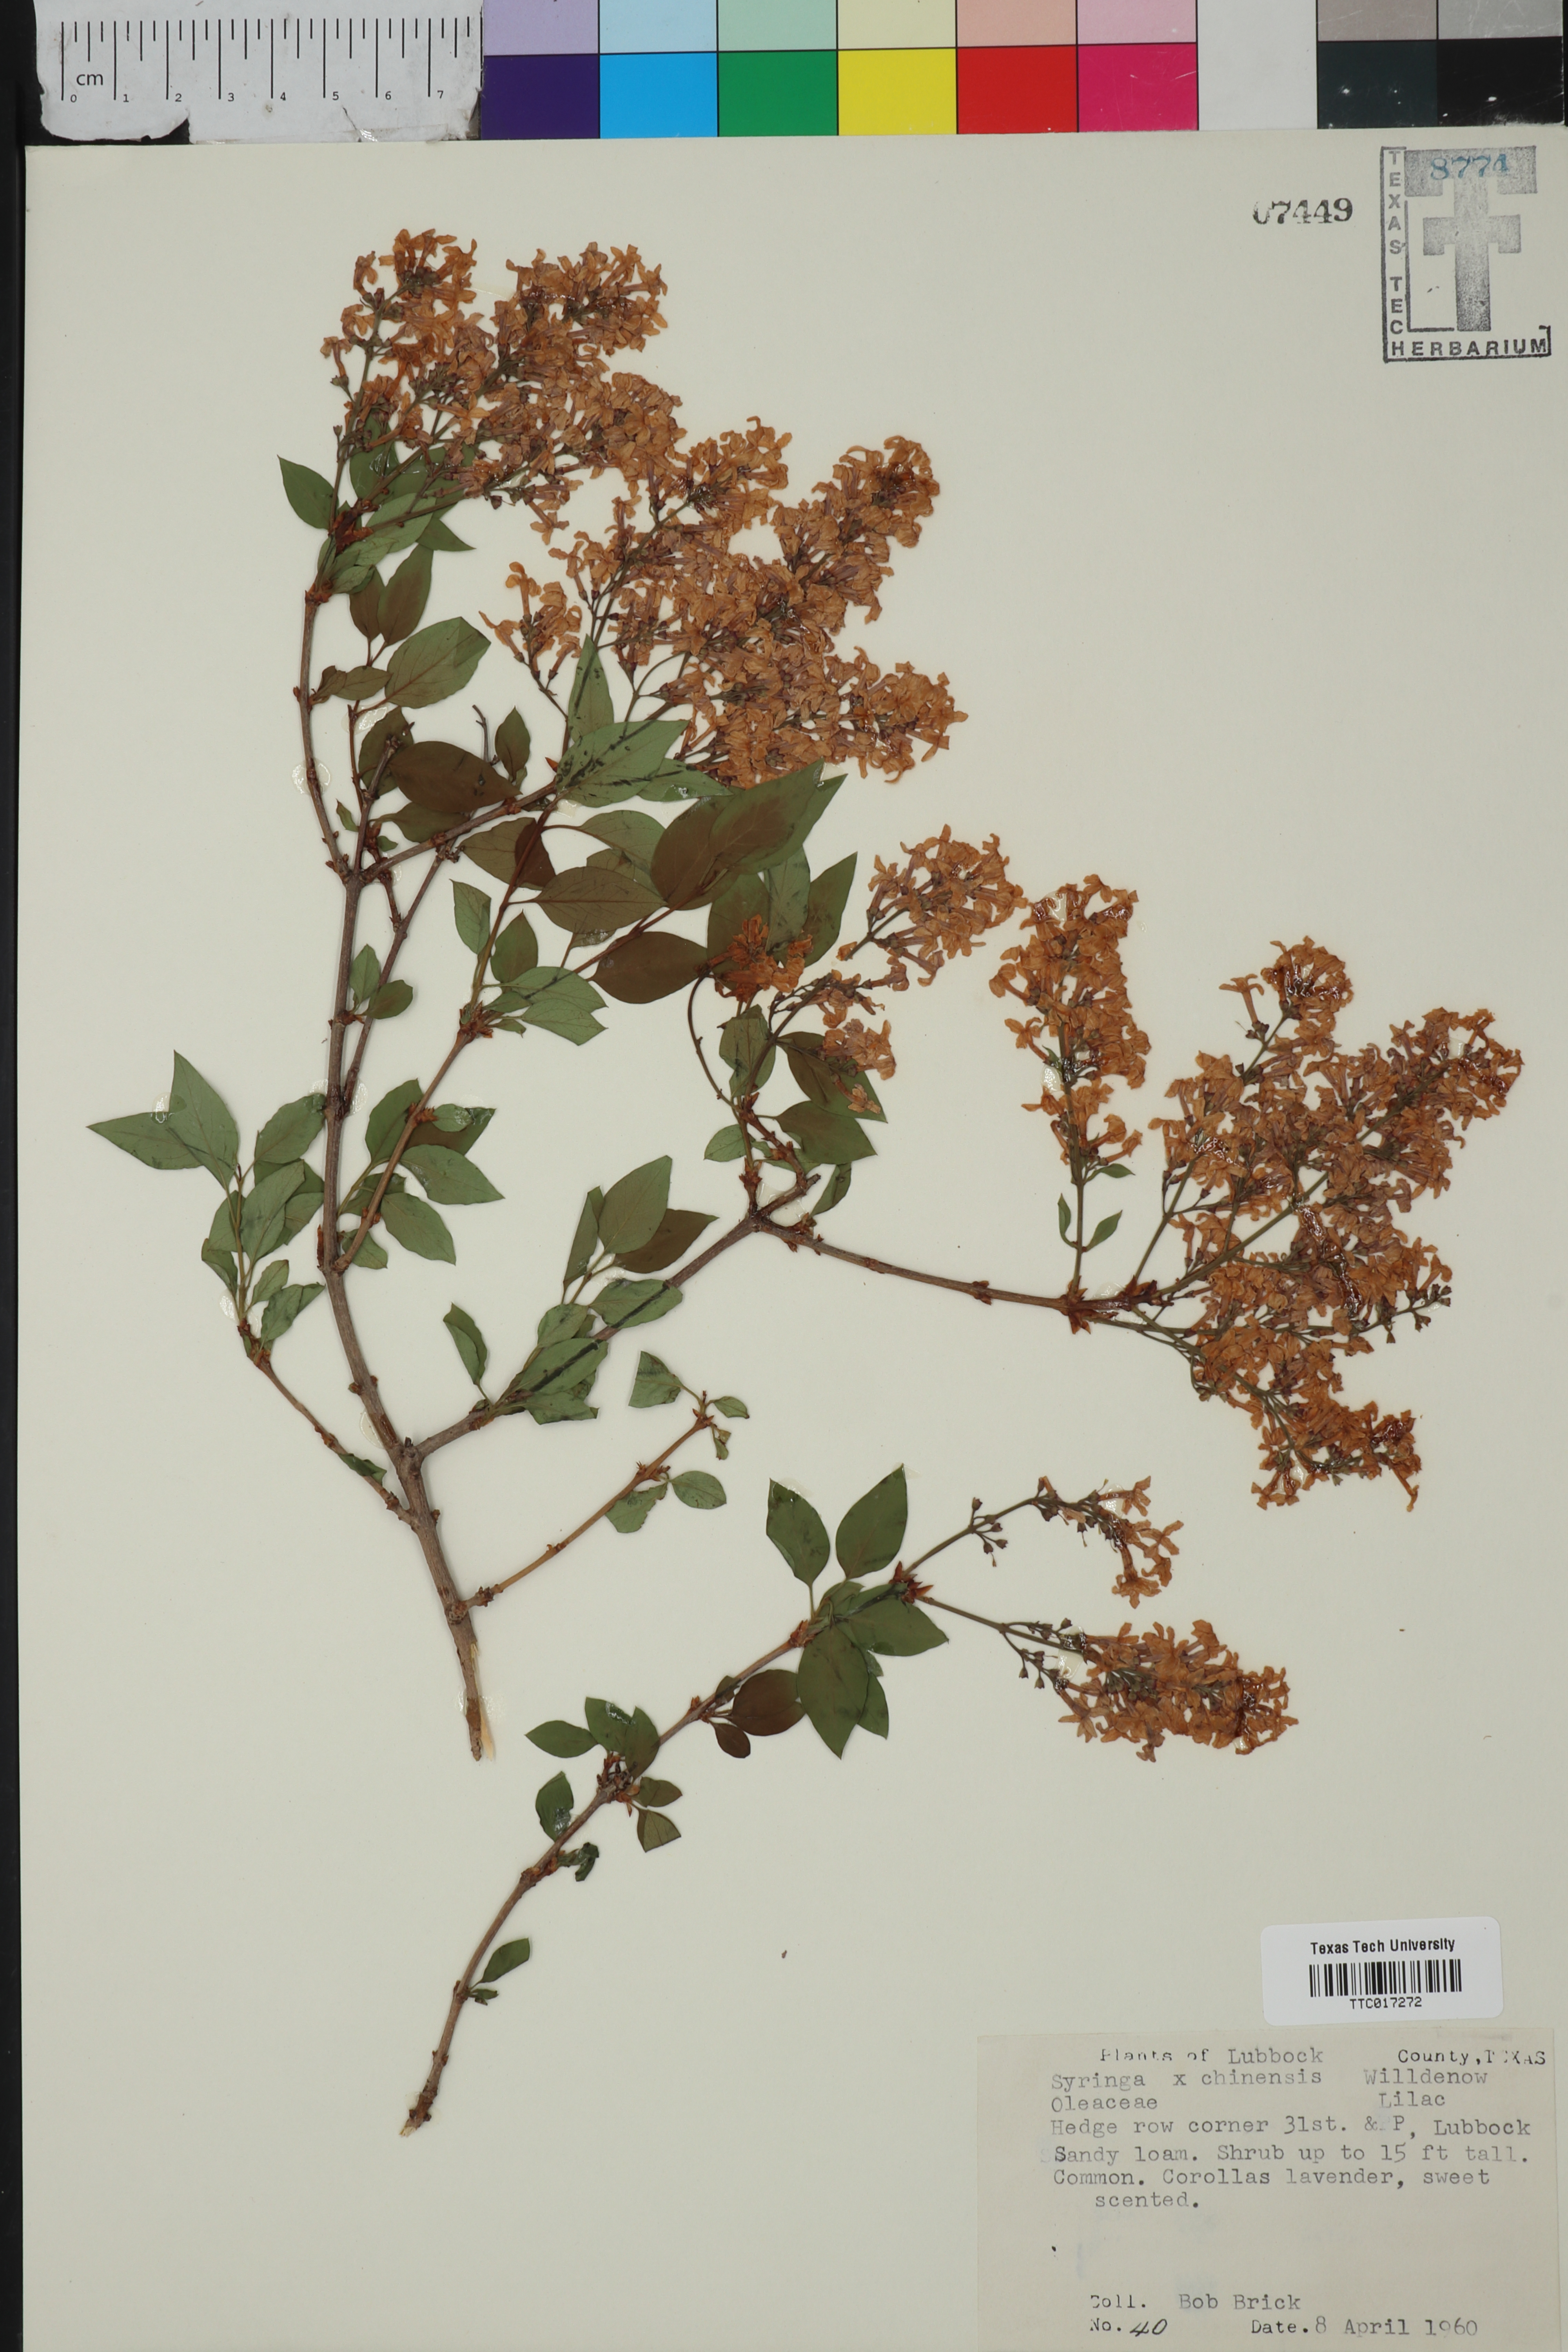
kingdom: Plantae
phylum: Tracheophyta
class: Magnoliopsida
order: Lamiales
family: Oleaceae
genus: Syringa
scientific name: Syringa chinensis
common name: Chinese lilac
